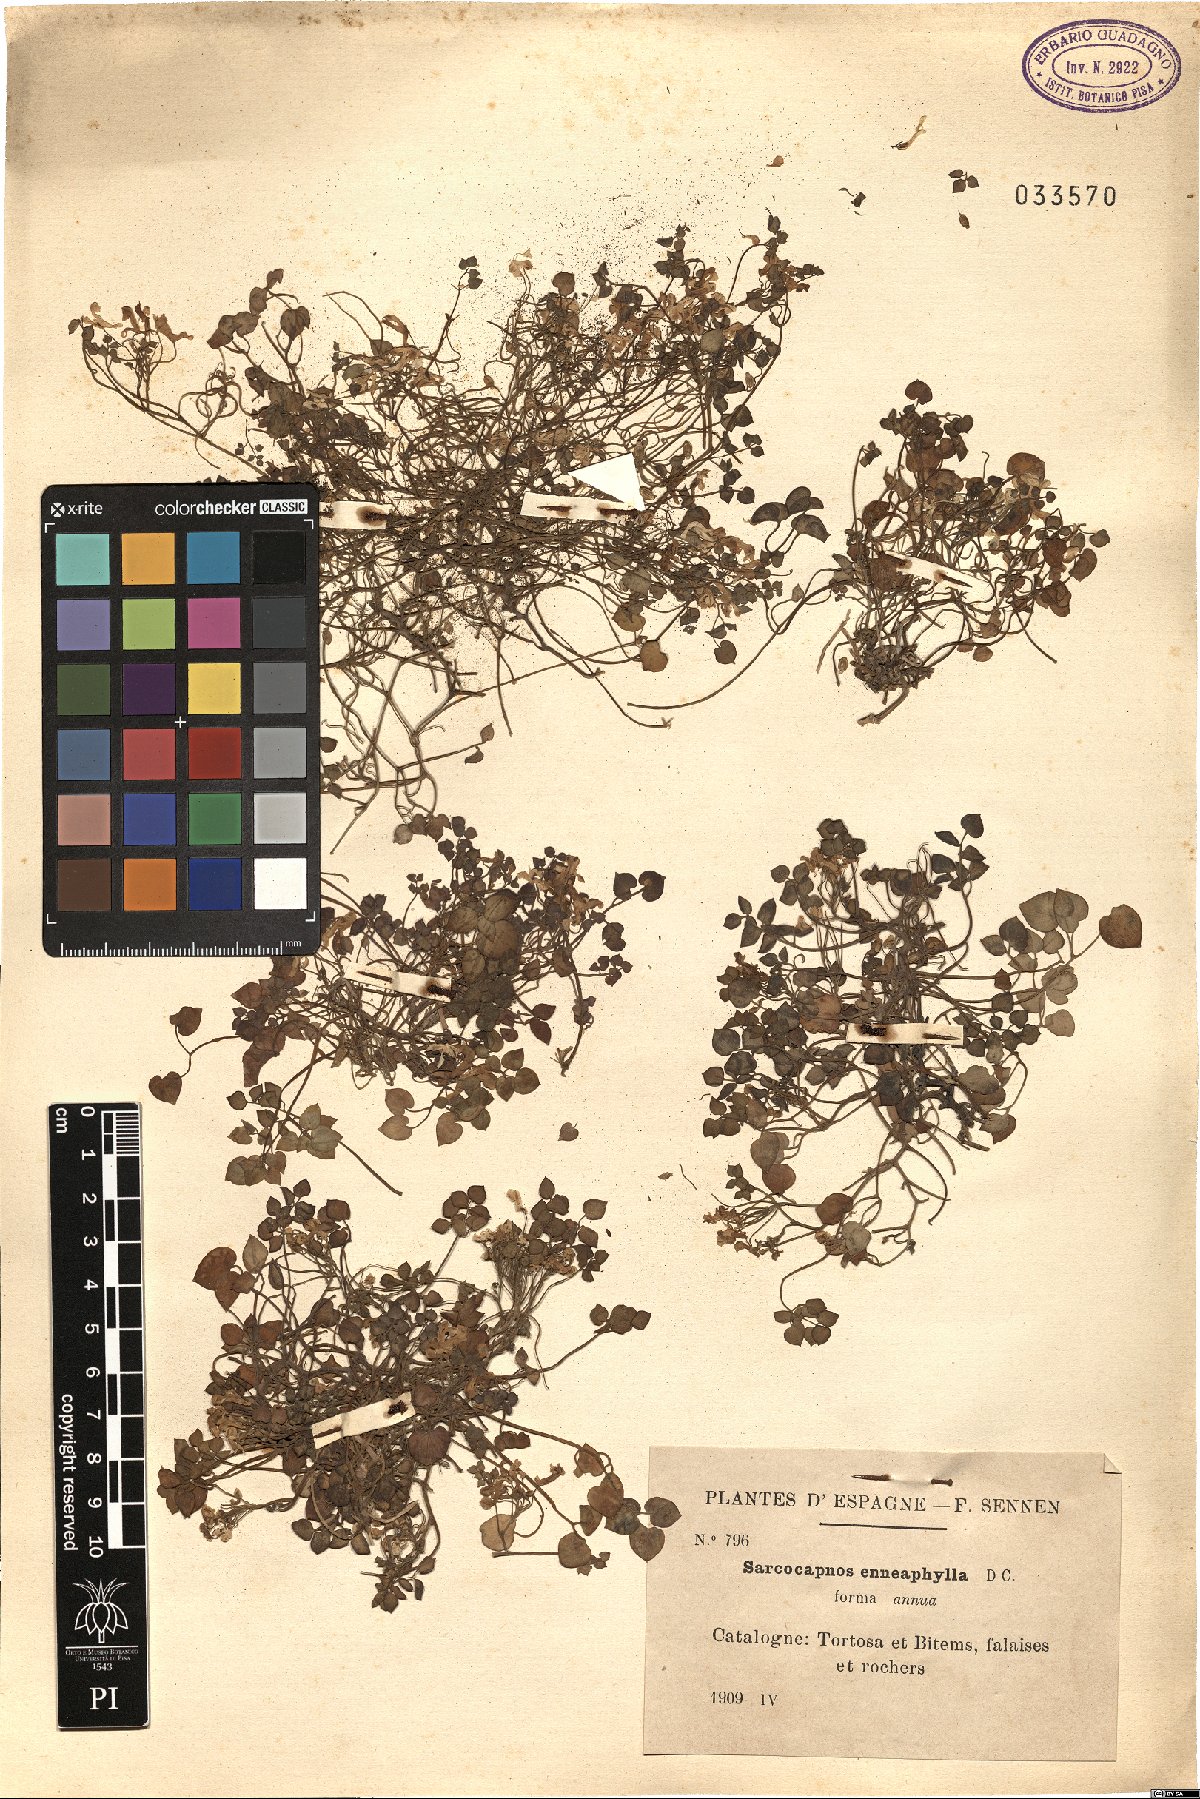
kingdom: Plantae
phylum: Tracheophyta
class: Magnoliopsida
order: Ranunculales
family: Papaveraceae
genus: Sarcocapnos
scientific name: Sarcocapnos enneaphylla
